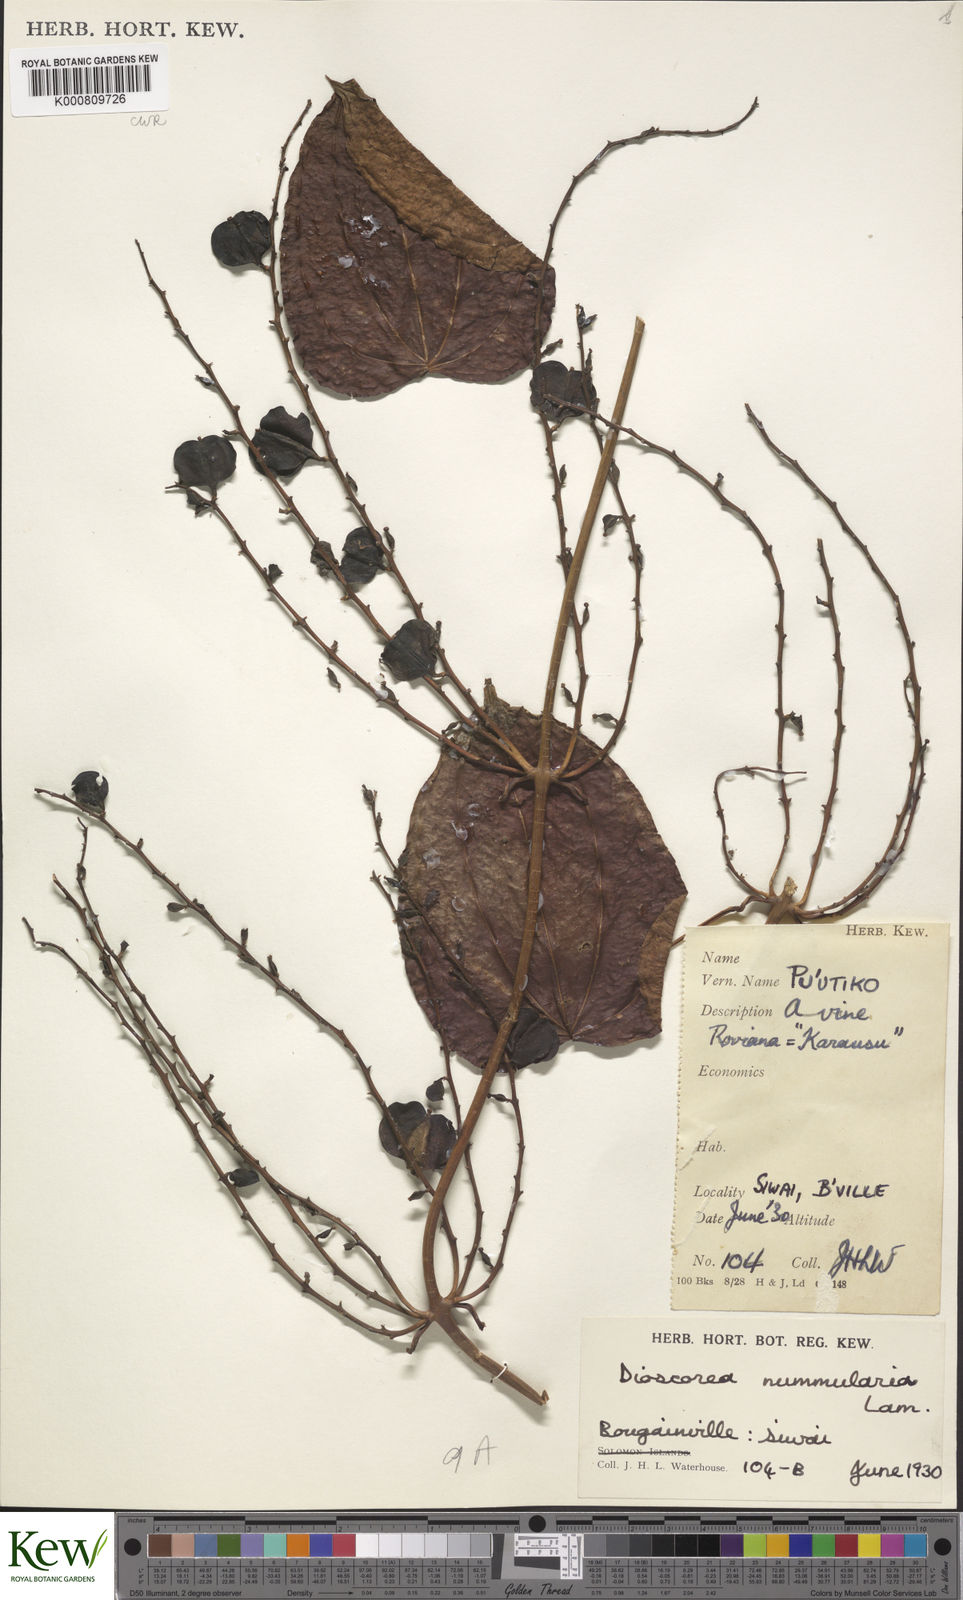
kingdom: Plantae
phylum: Tracheophyta
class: Liliopsida
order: Dioscoreales
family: Dioscoreaceae
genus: Dioscorea
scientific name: Dioscorea nummularia
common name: Pacific yam
